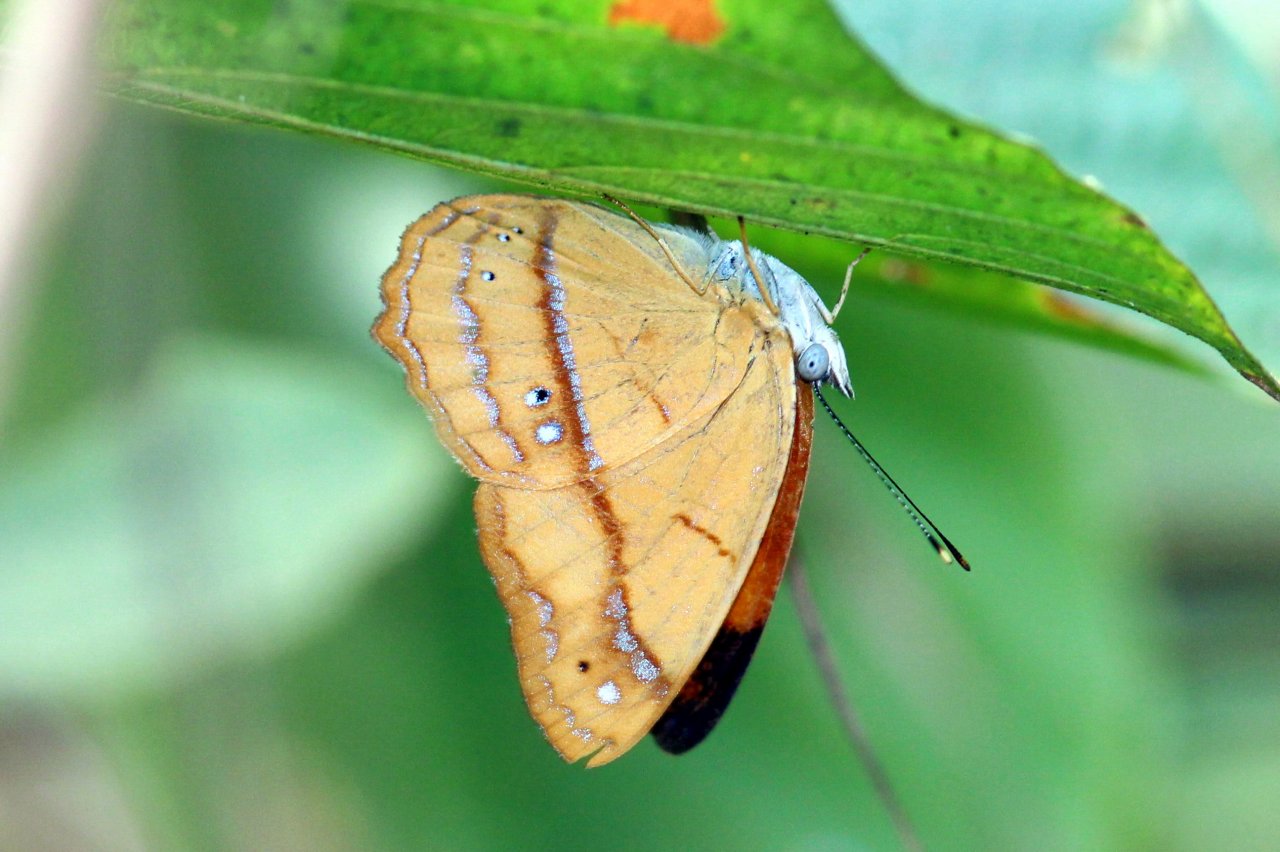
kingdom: Animalia
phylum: Arthropoda
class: Insecta
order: Lepidoptera
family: Nymphalidae
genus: Nica
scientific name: Nica flavilla
